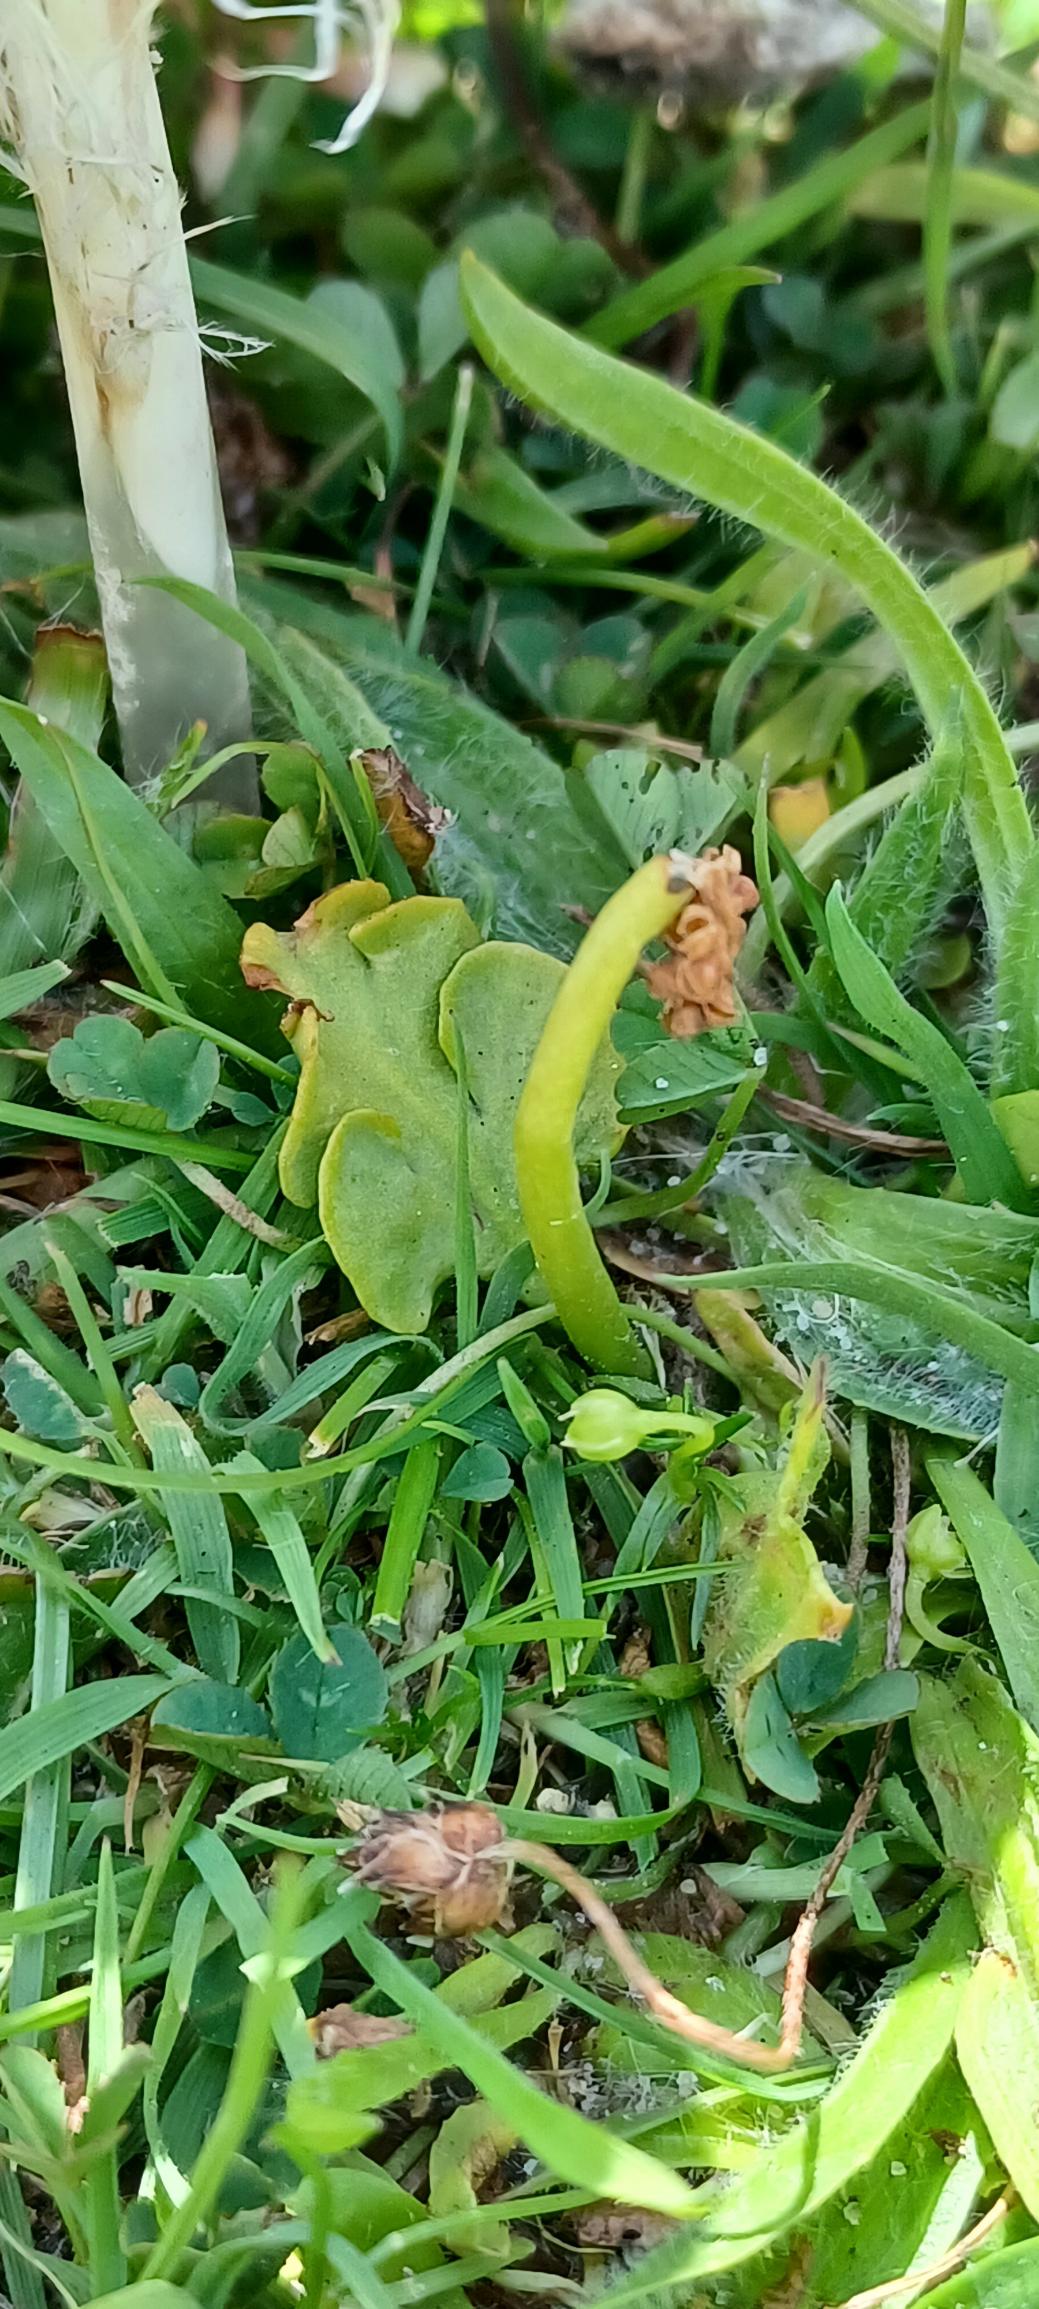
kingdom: Plantae
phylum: Tracheophyta
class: Polypodiopsida
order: Ophioglossales
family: Ophioglossaceae
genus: Botrychium
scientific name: Botrychium simplex
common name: Enkelt månerude
